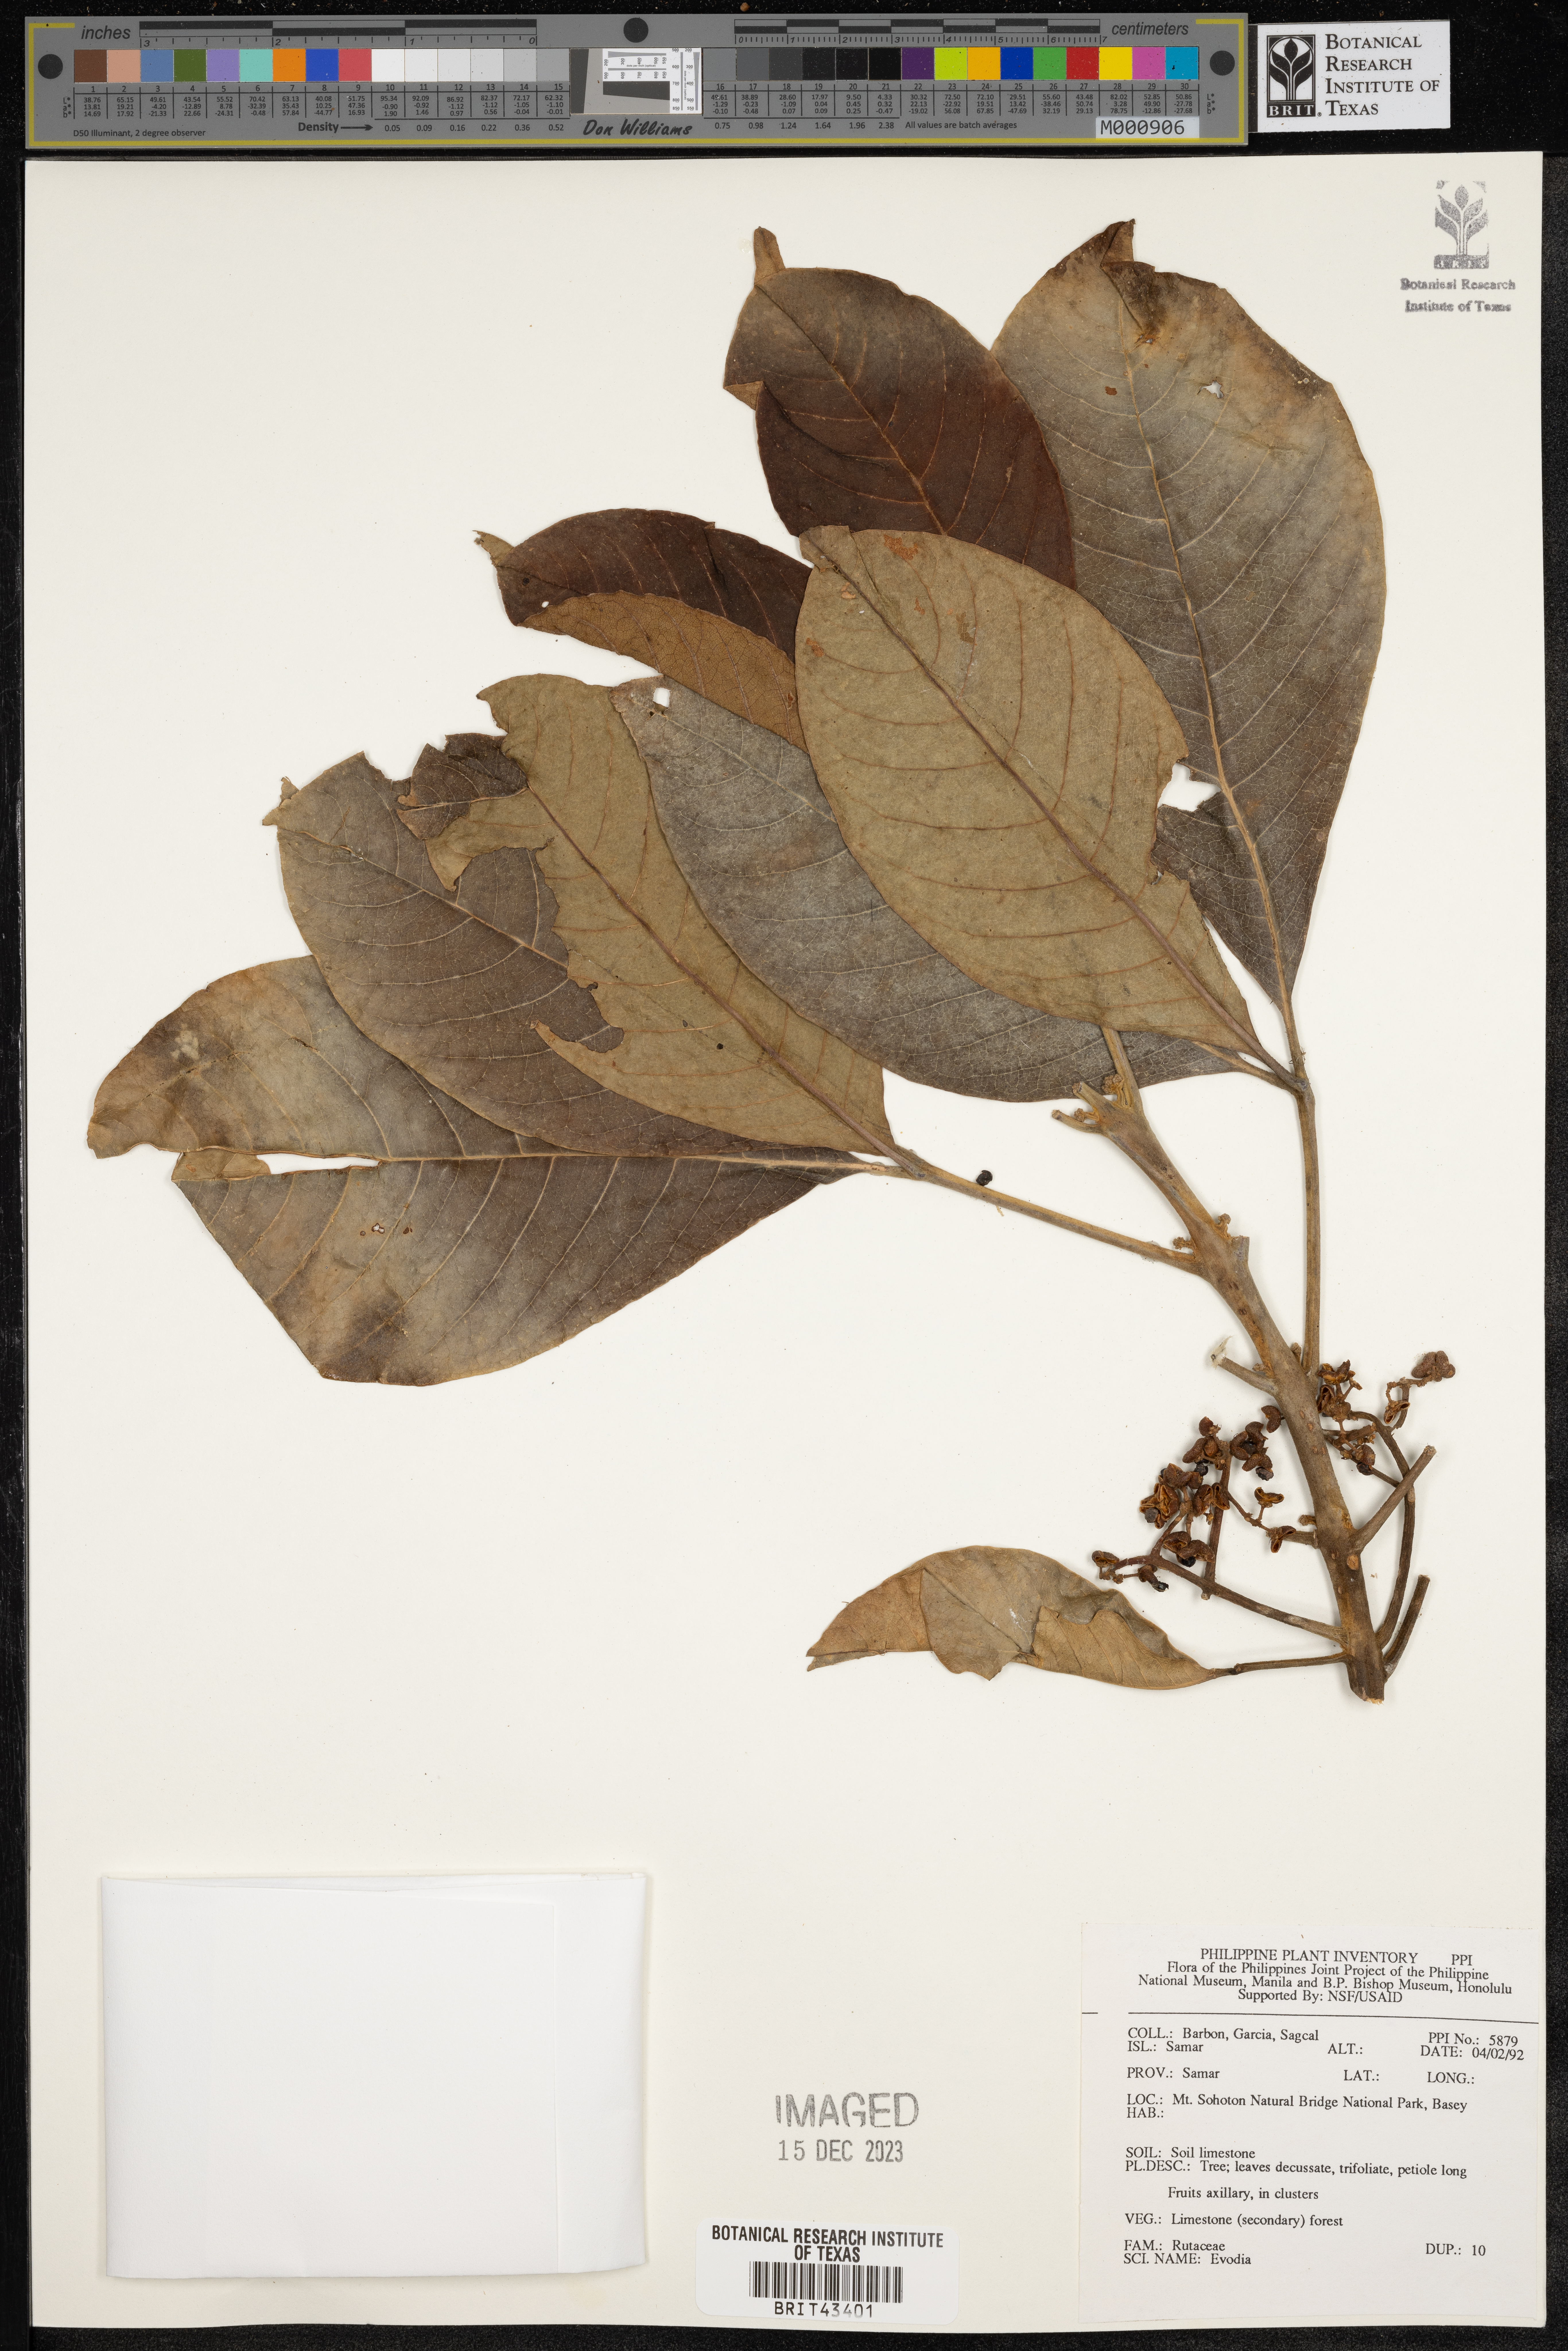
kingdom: Plantae
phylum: Tracheophyta
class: Magnoliopsida
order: Sapindales
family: Rutaceae
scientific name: Rutaceae
